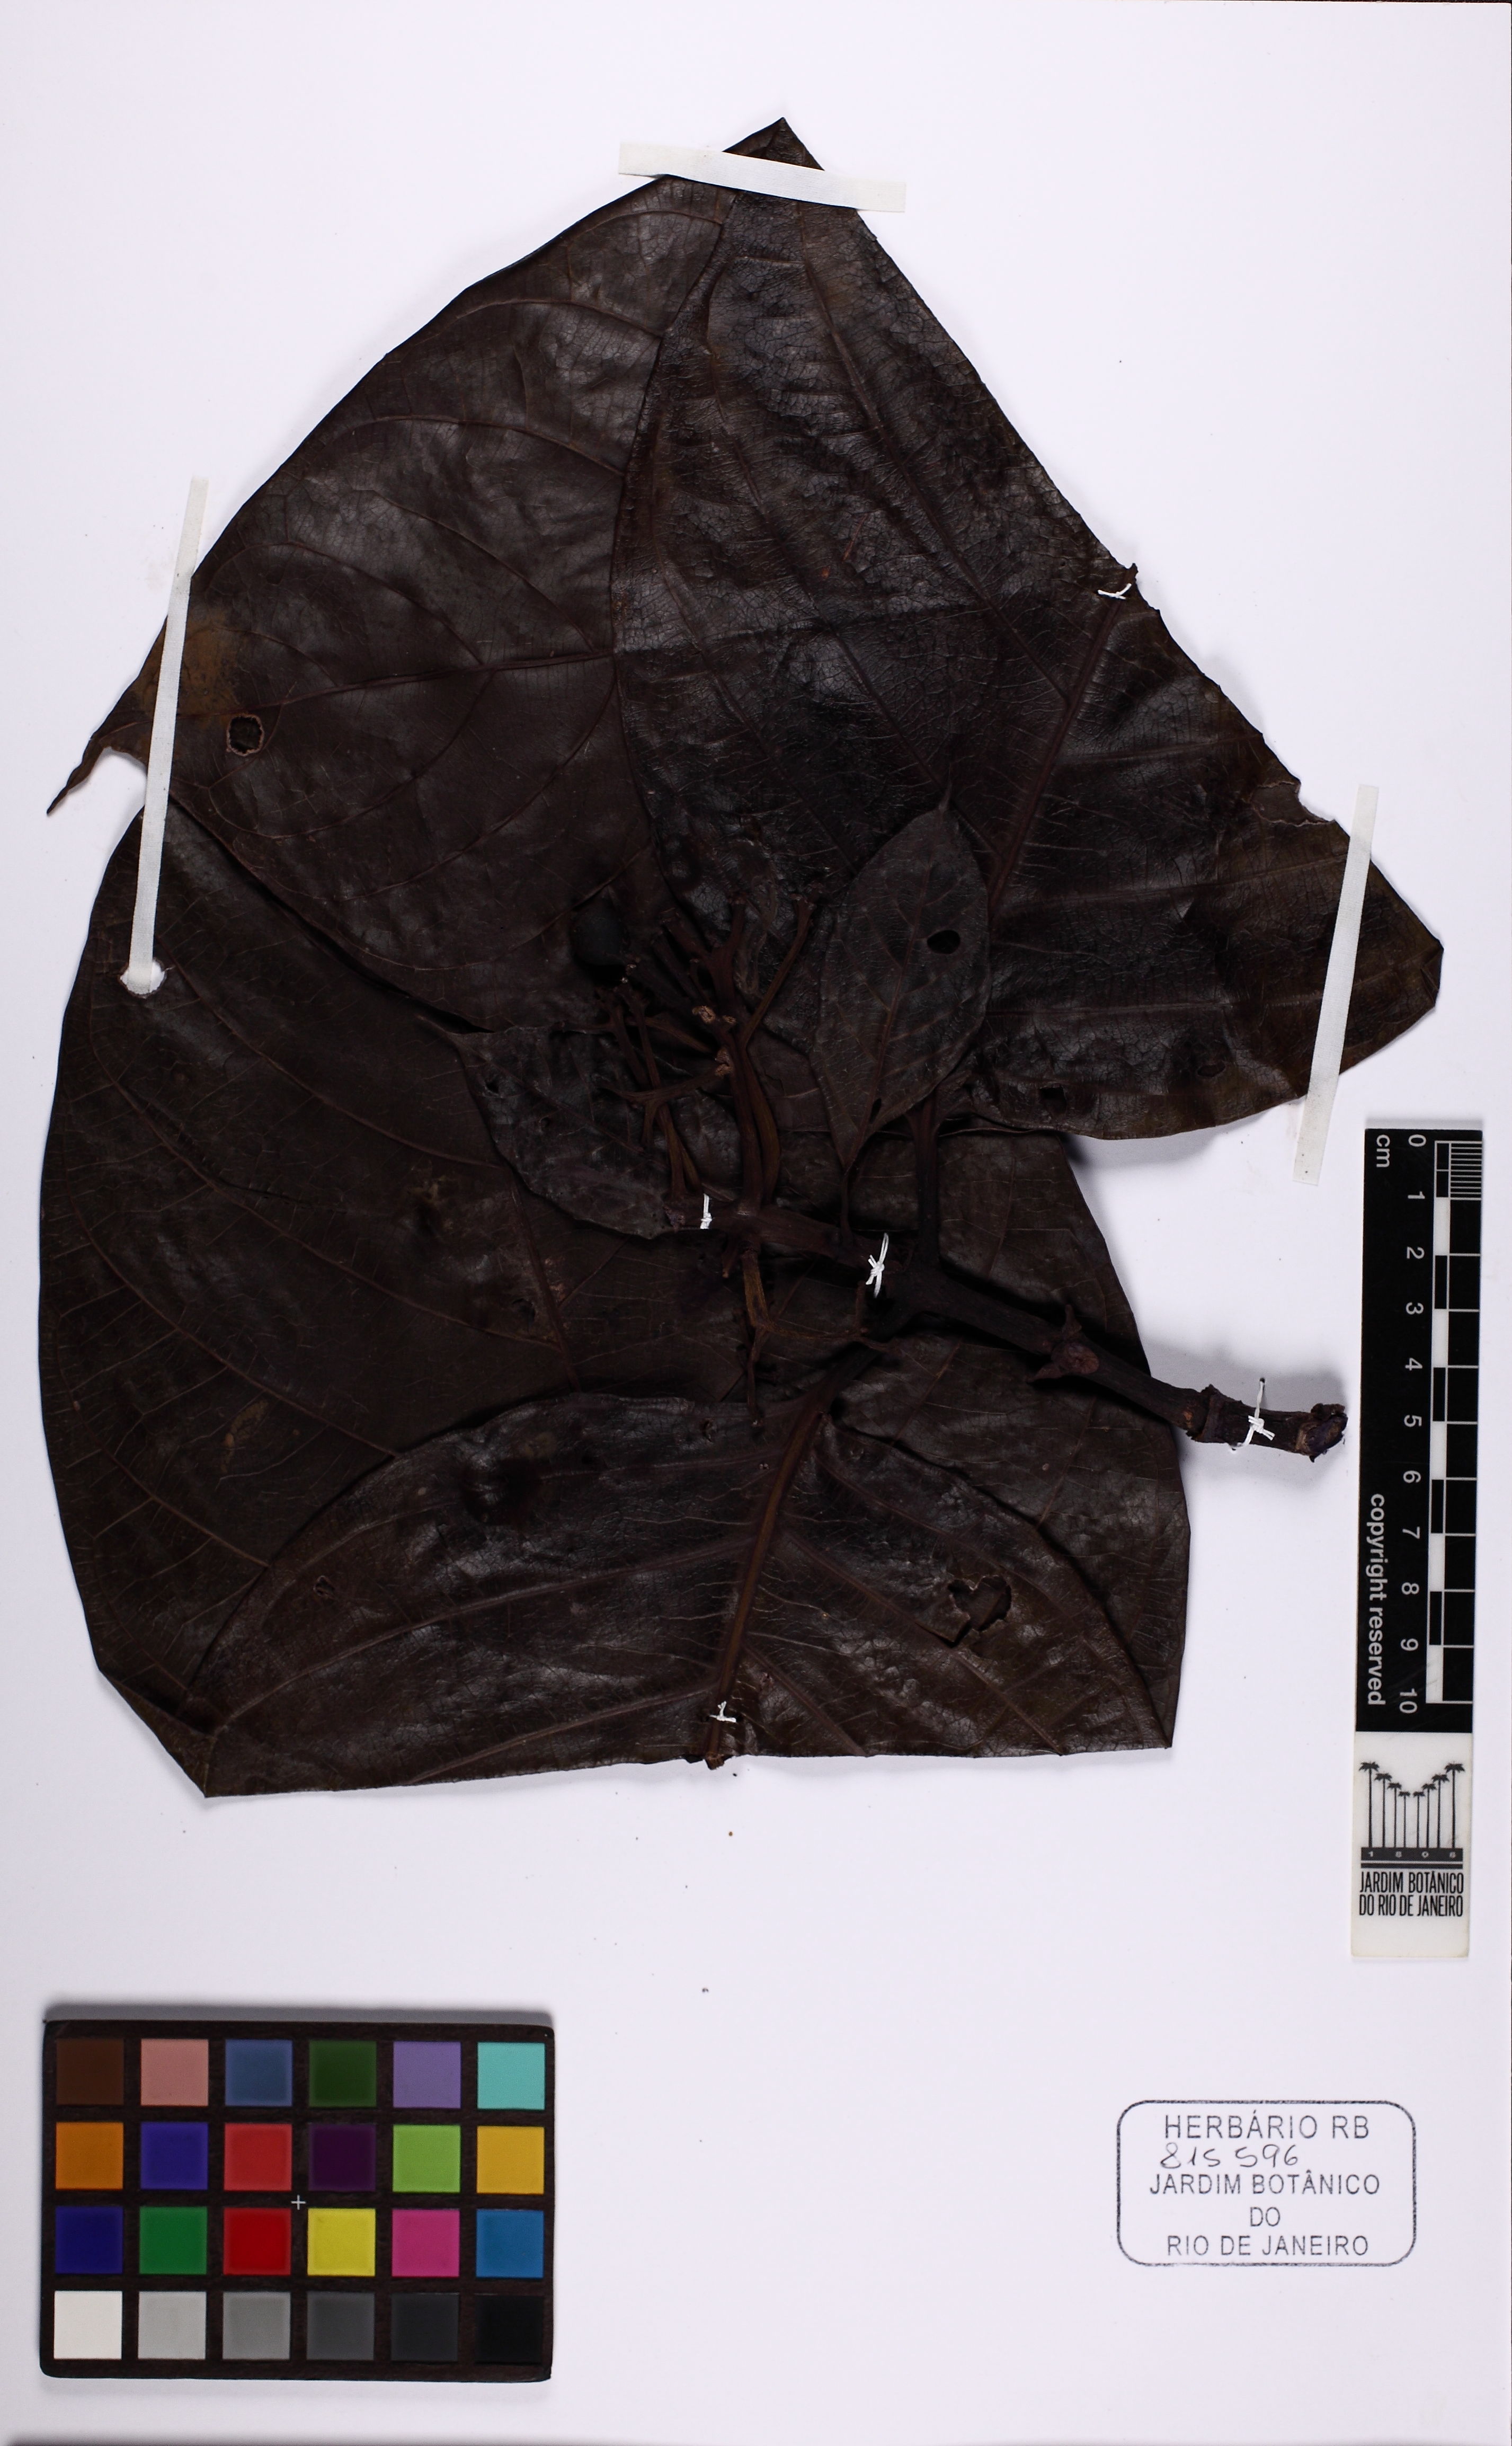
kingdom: Plantae
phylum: Tracheophyta
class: Magnoliopsida
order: Gentianales
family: Rubiaceae
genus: Coussarea
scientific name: Coussarea
